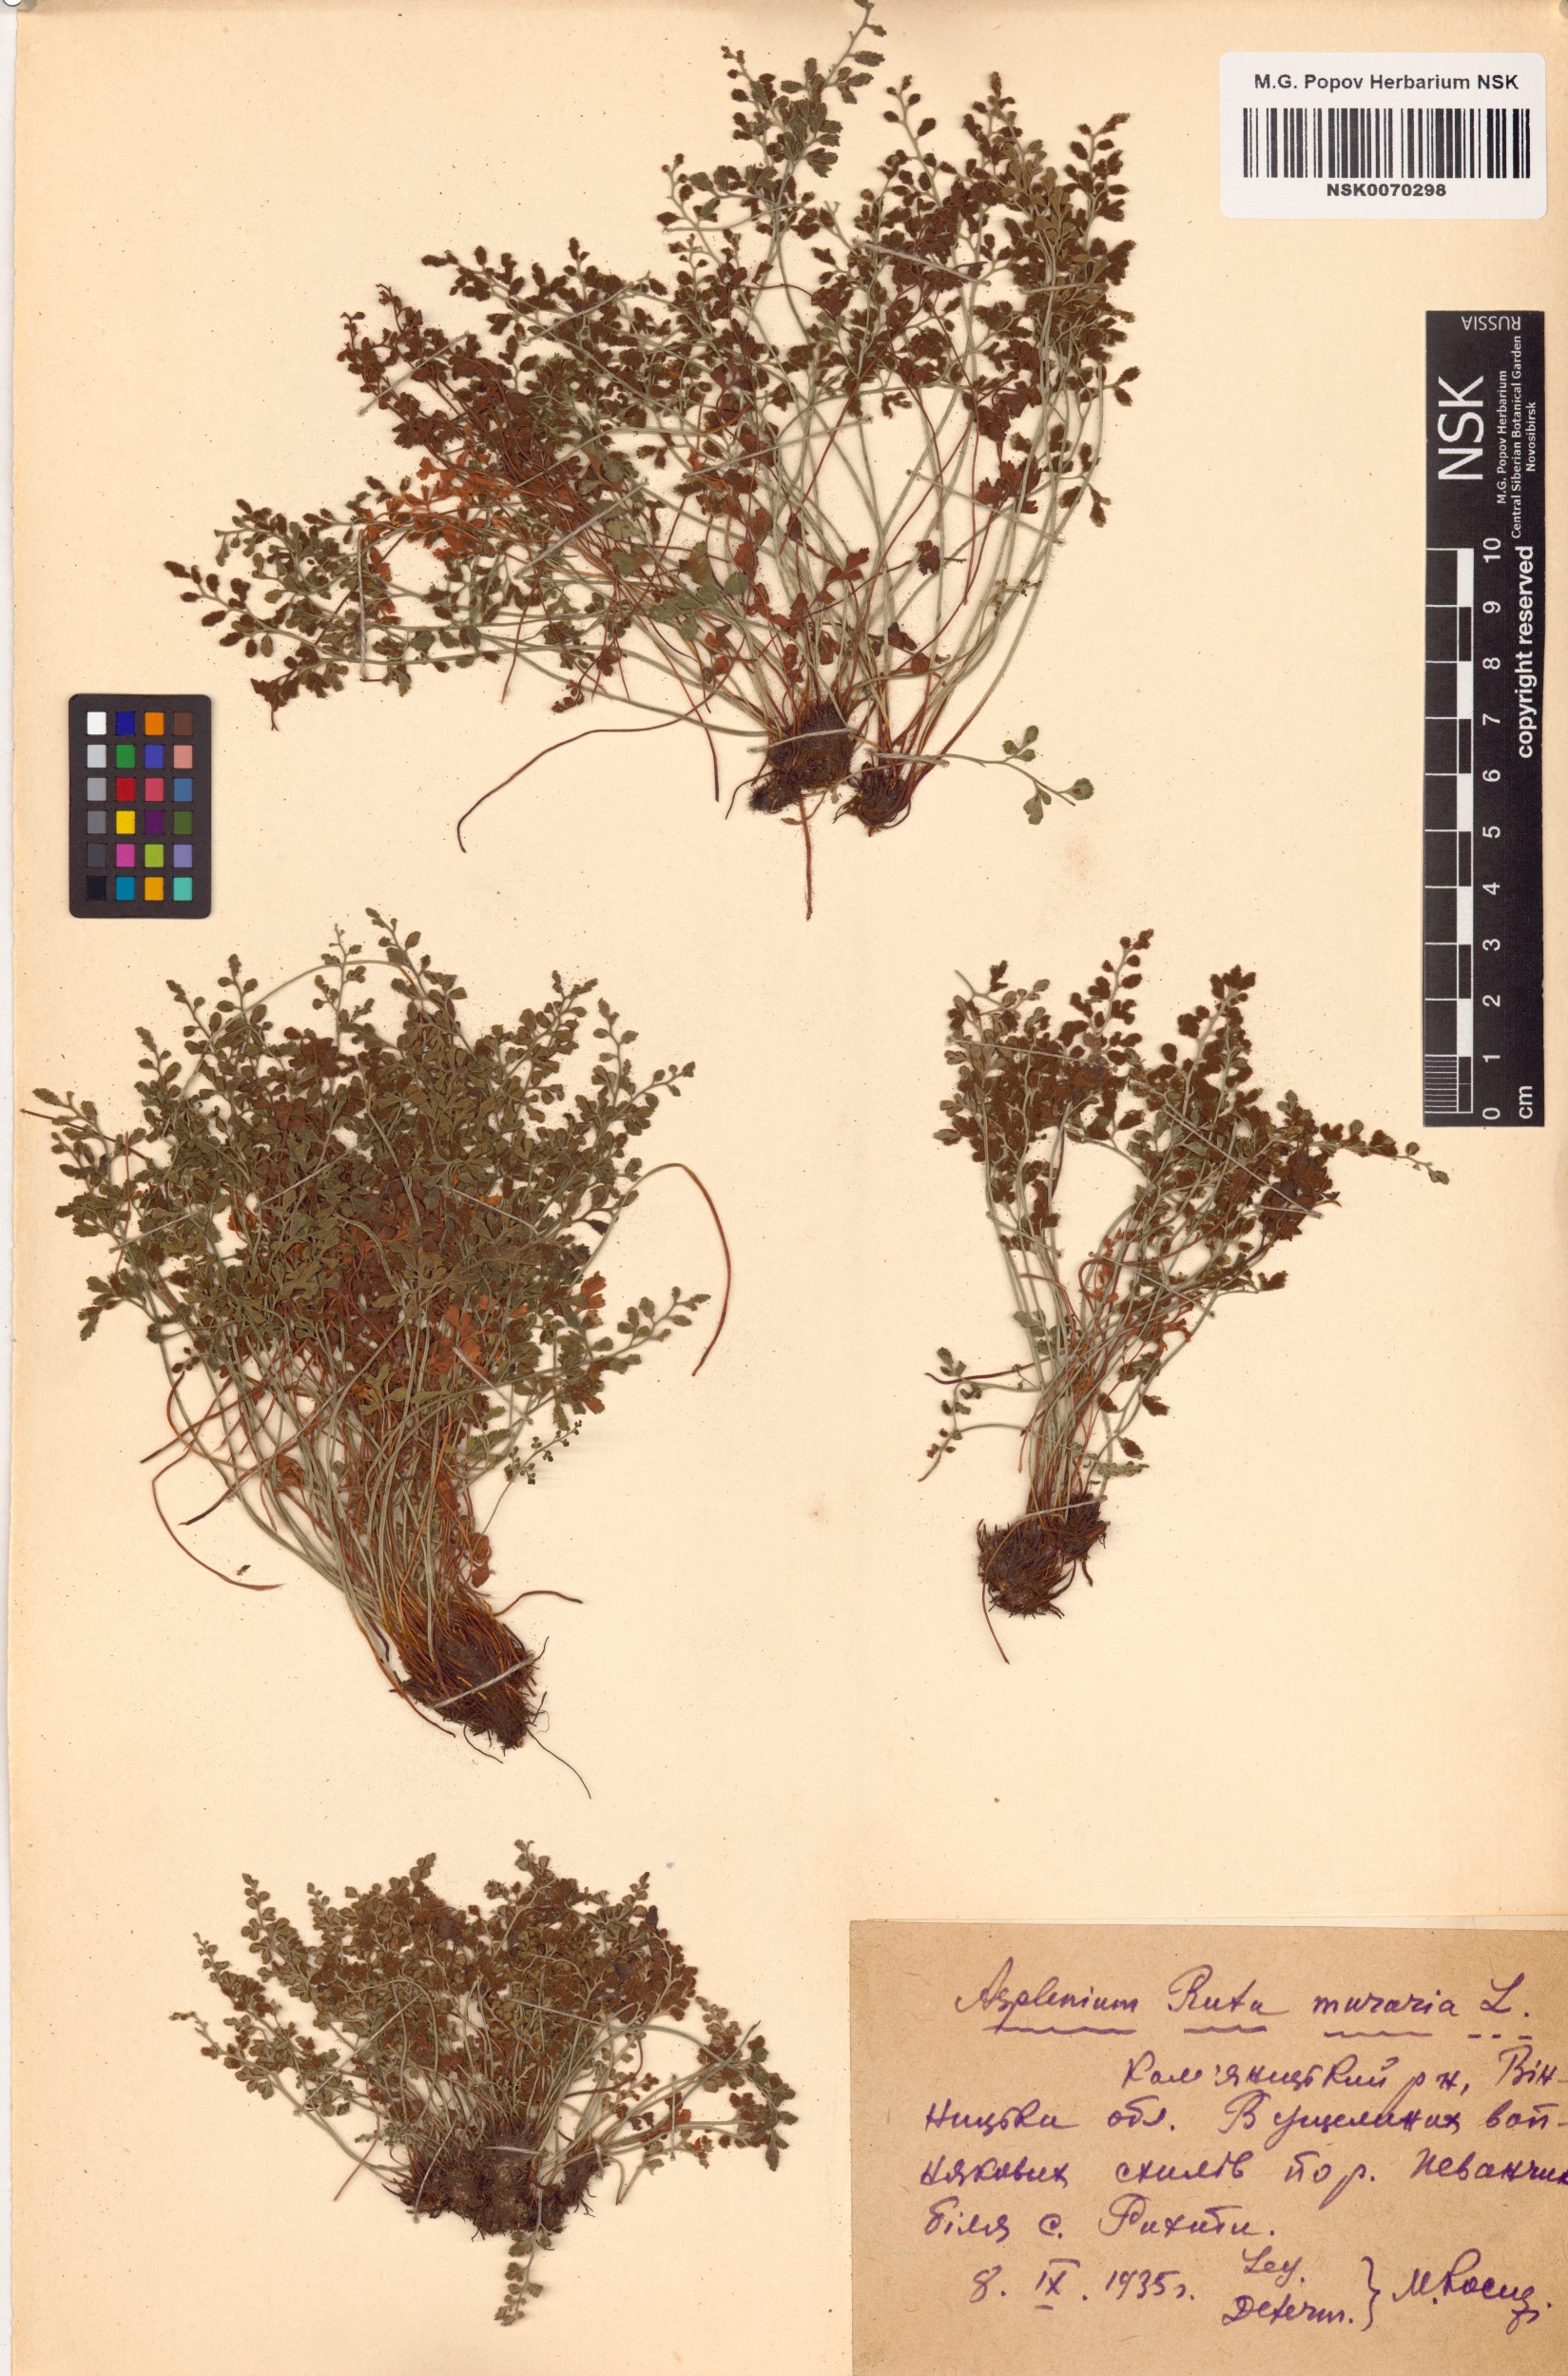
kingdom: Plantae
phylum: Tracheophyta
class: Polypodiopsida
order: Polypodiales
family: Aspleniaceae
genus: Asplenium
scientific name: Asplenium ruta-muraria
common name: Wall-rue
